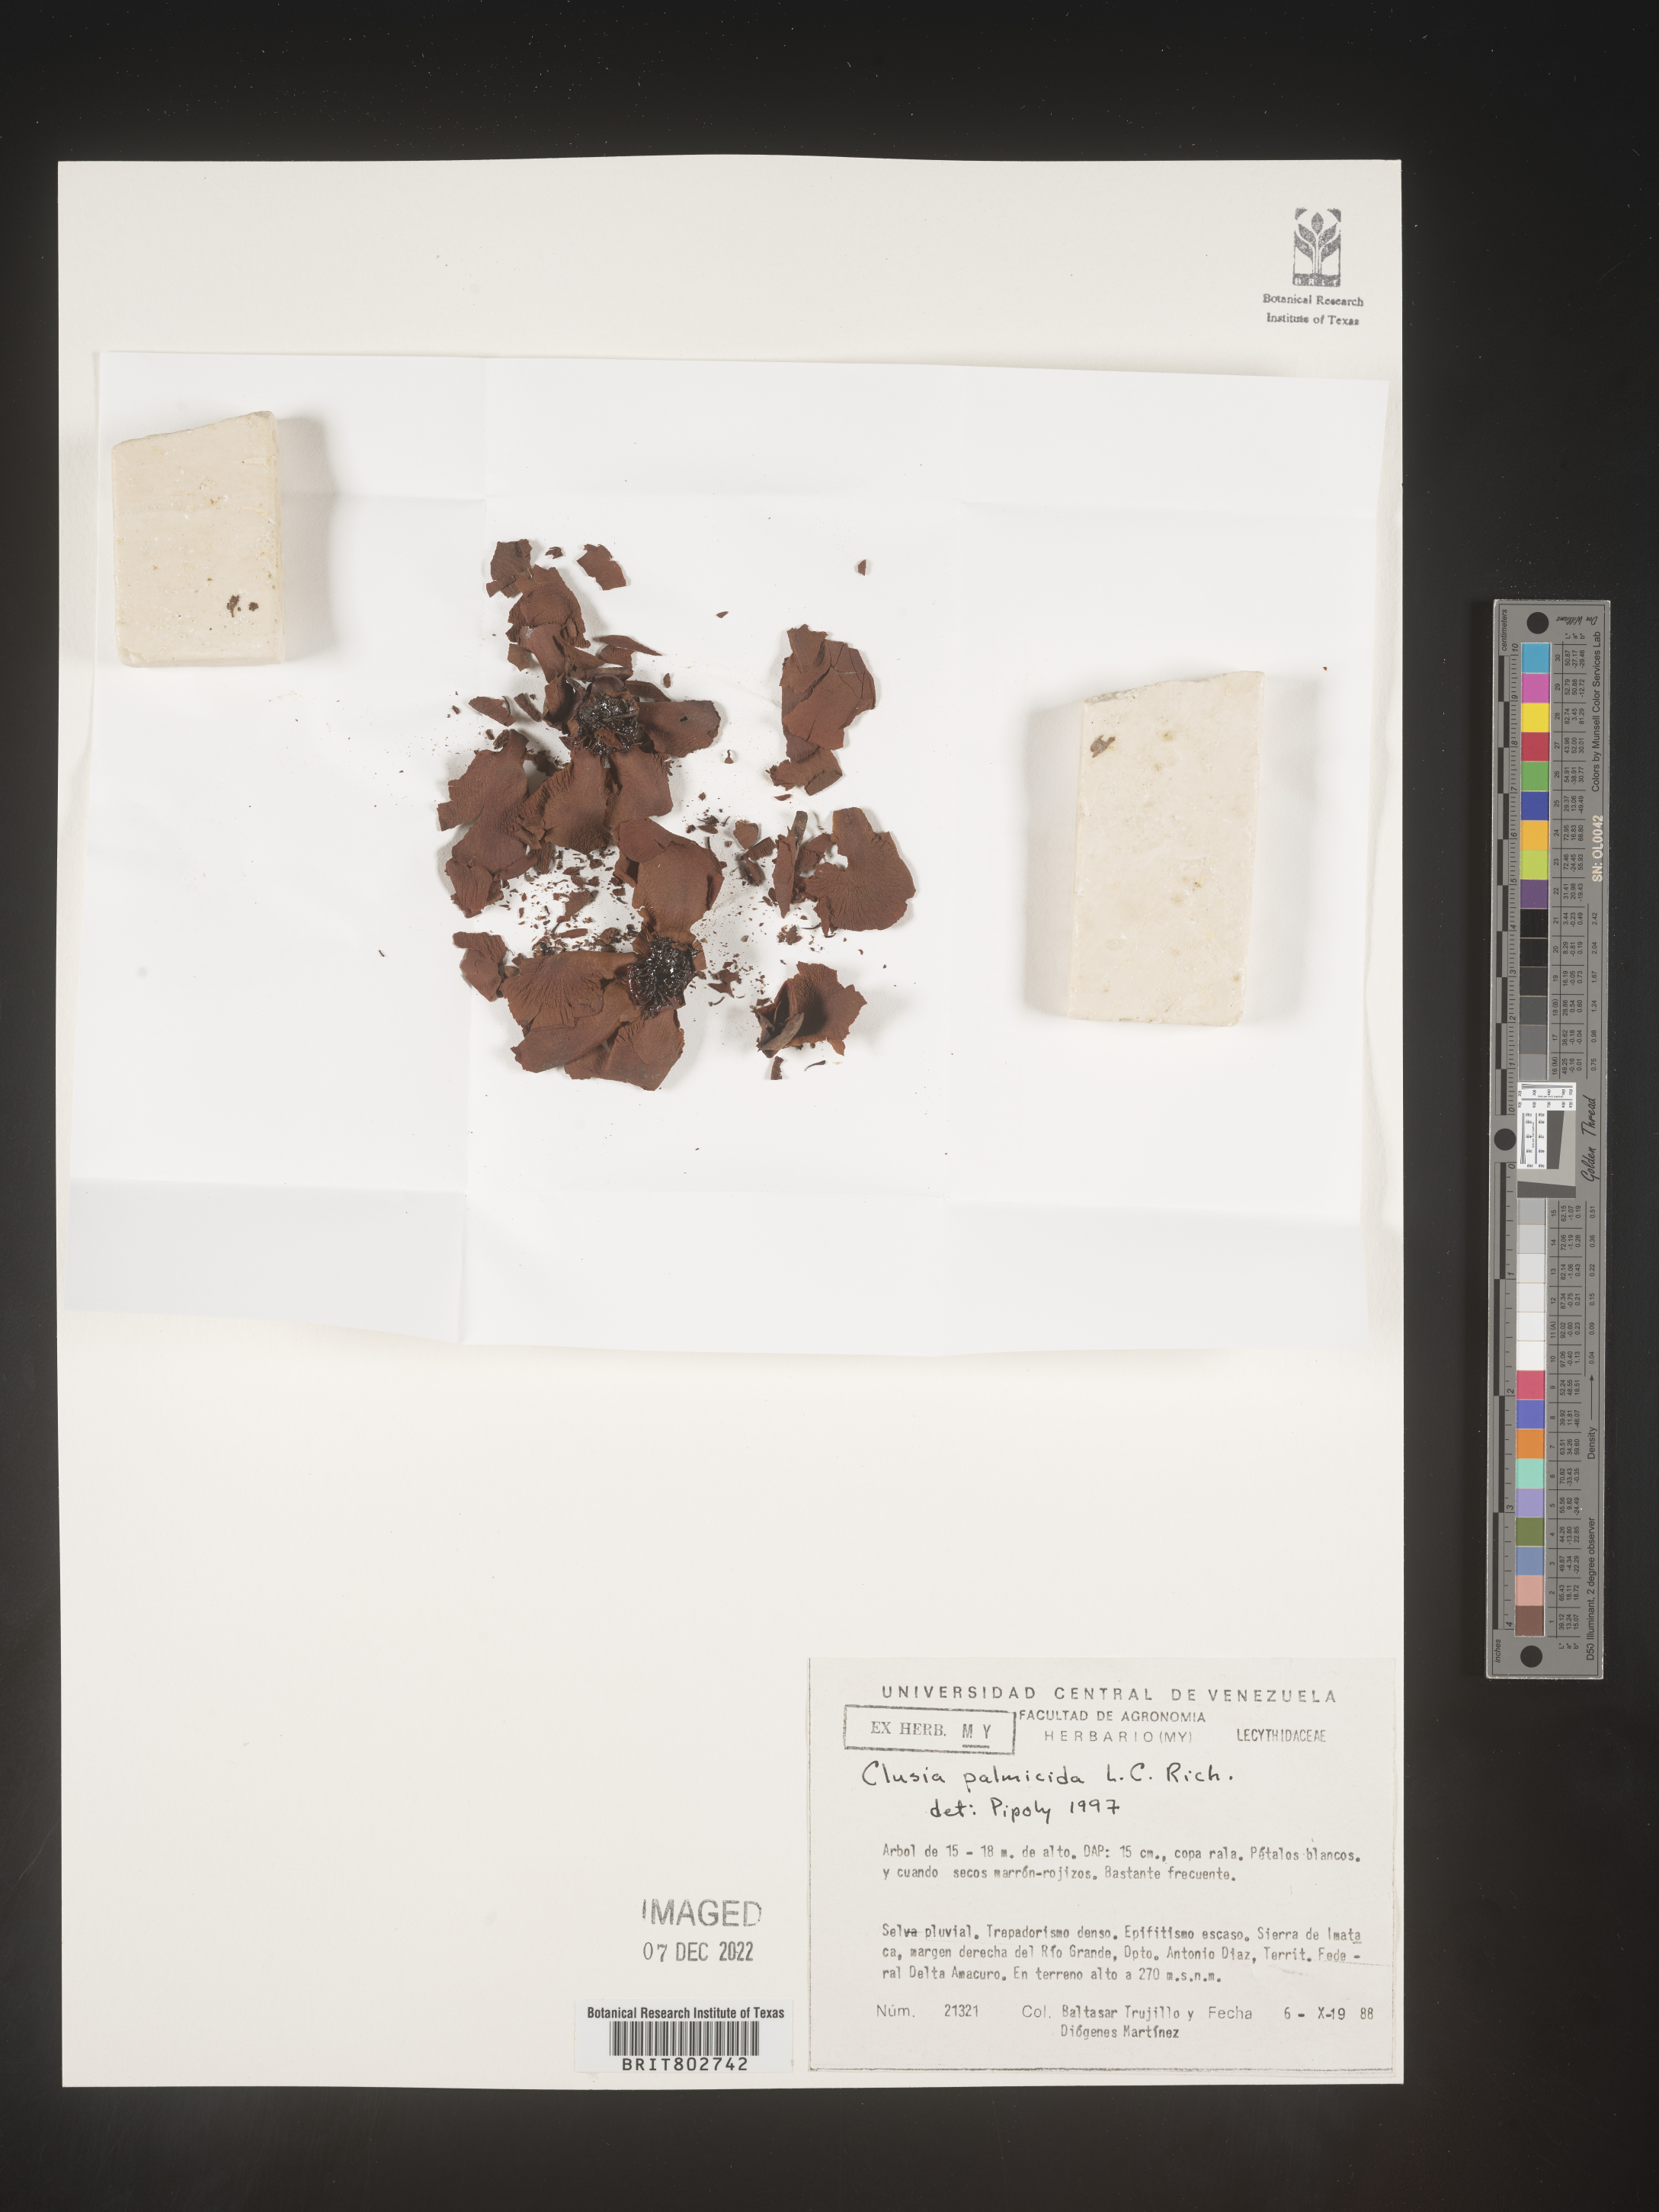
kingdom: Plantae
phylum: Tracheophyta
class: Magnoliopsida
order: Malpighiales
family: Clusiaceae
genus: Clusia
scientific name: Clusia palmicida
